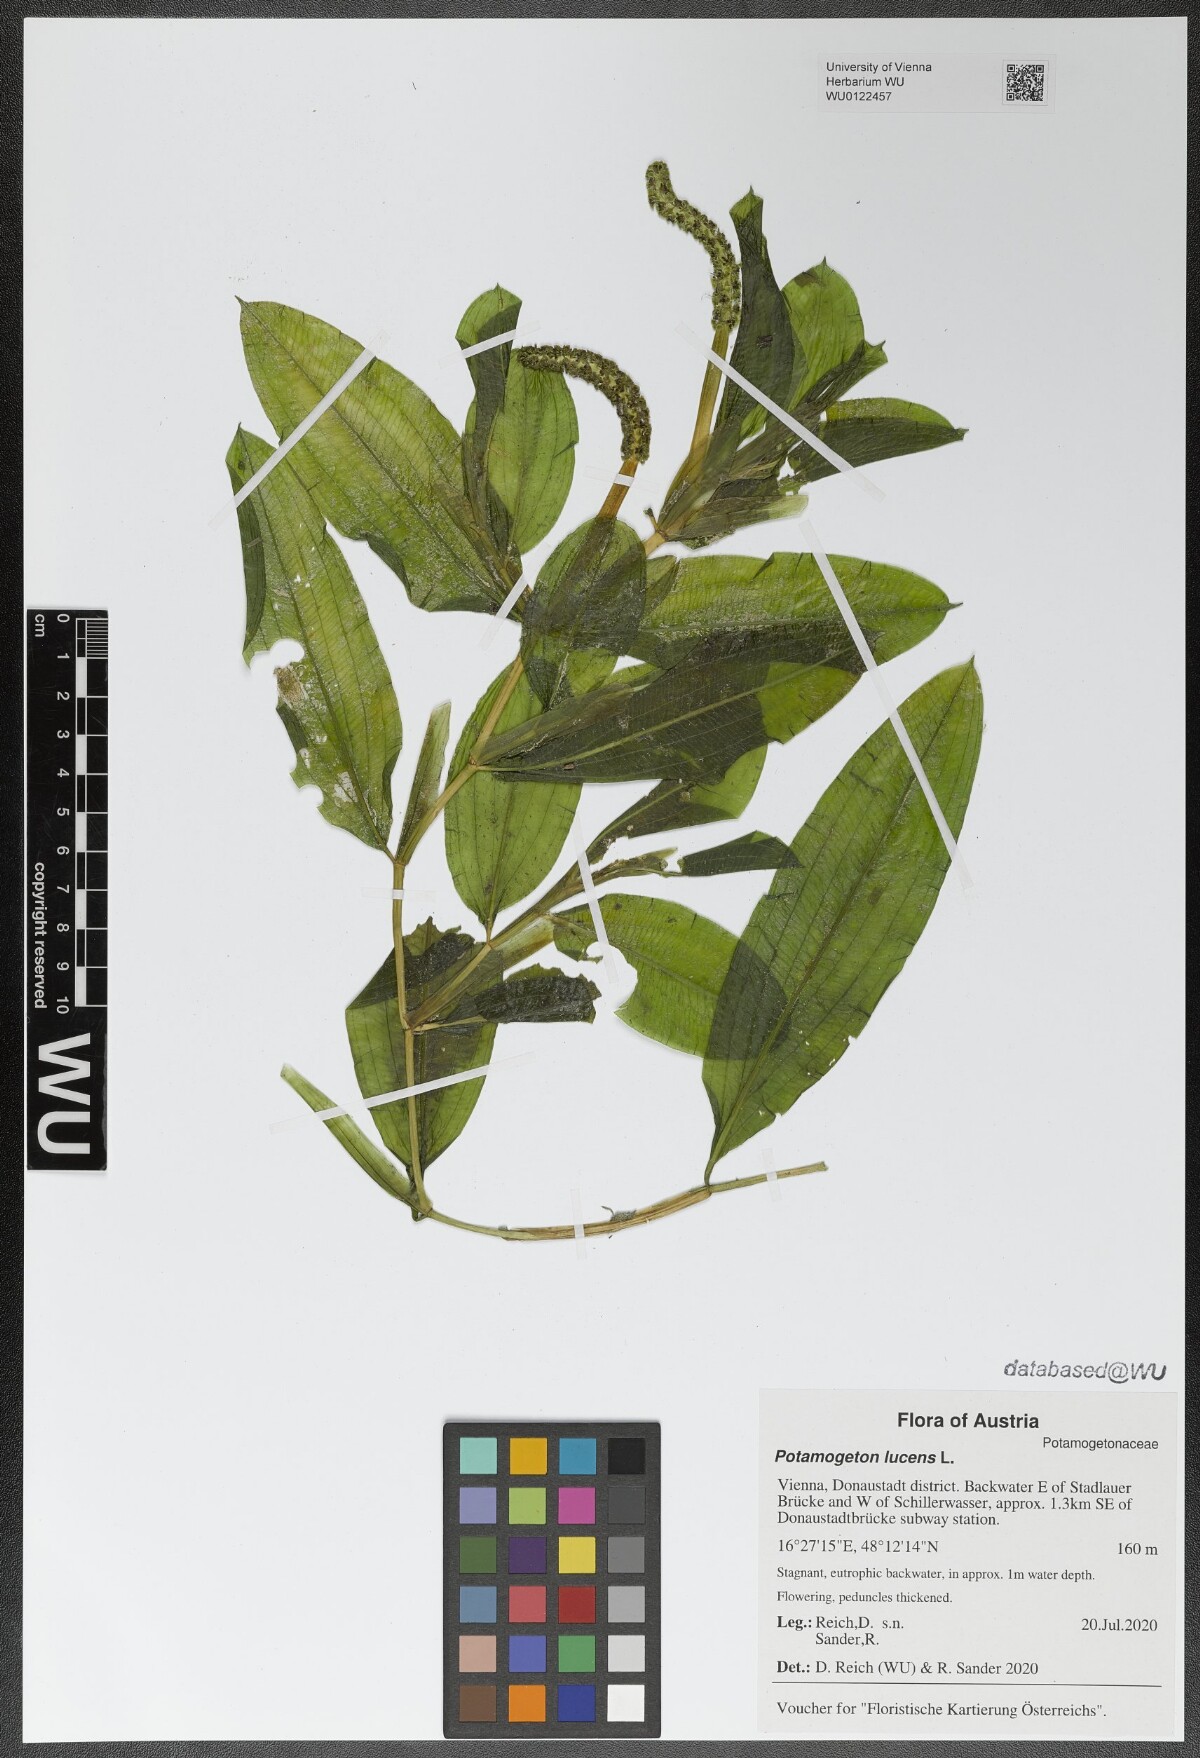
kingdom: Plantae
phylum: Tracheophyta
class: Liliopsida
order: Alismatales
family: Potamogetonaceae
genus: Potamogeton
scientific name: Potamogeton lucens
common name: Shining pondweed
